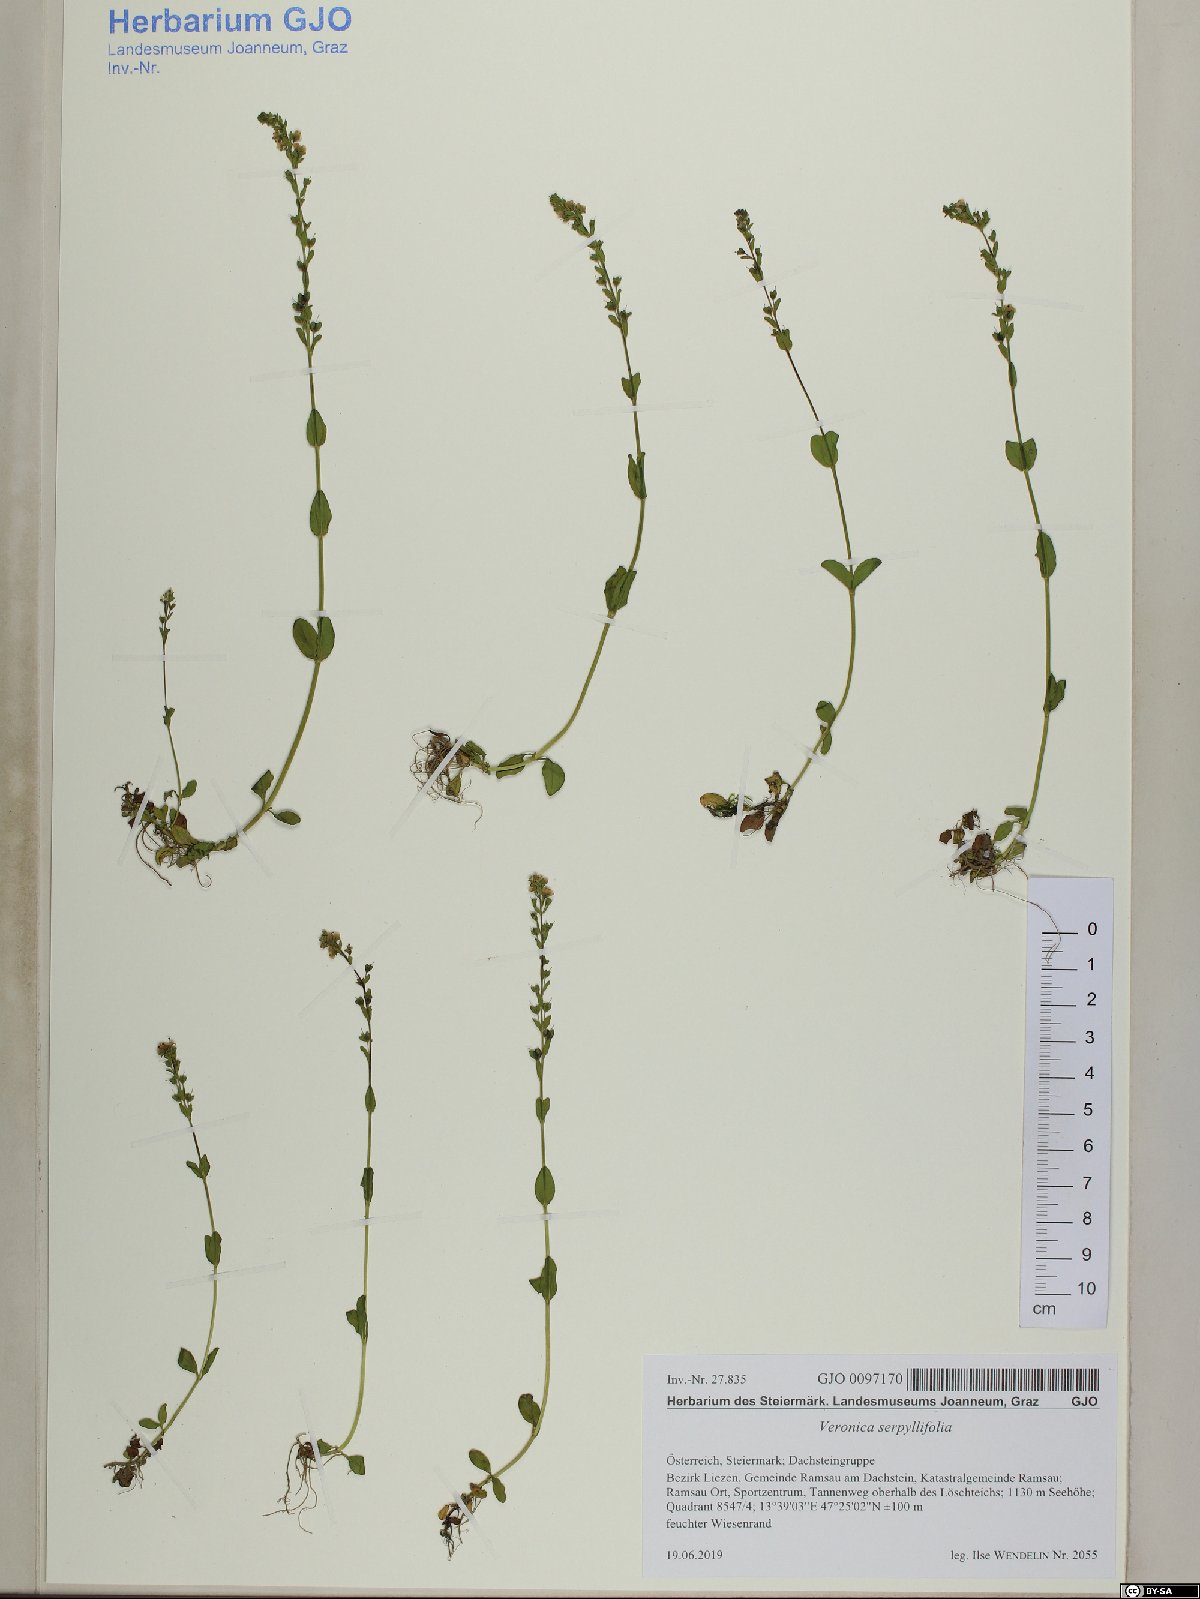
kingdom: Plantae
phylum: Tracheophyta
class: Magnoliopsida
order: Lamiales
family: Plantaginaceae
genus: Veronica
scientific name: Veronica serpyllifolia
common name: Thyme-leaved speedwell
